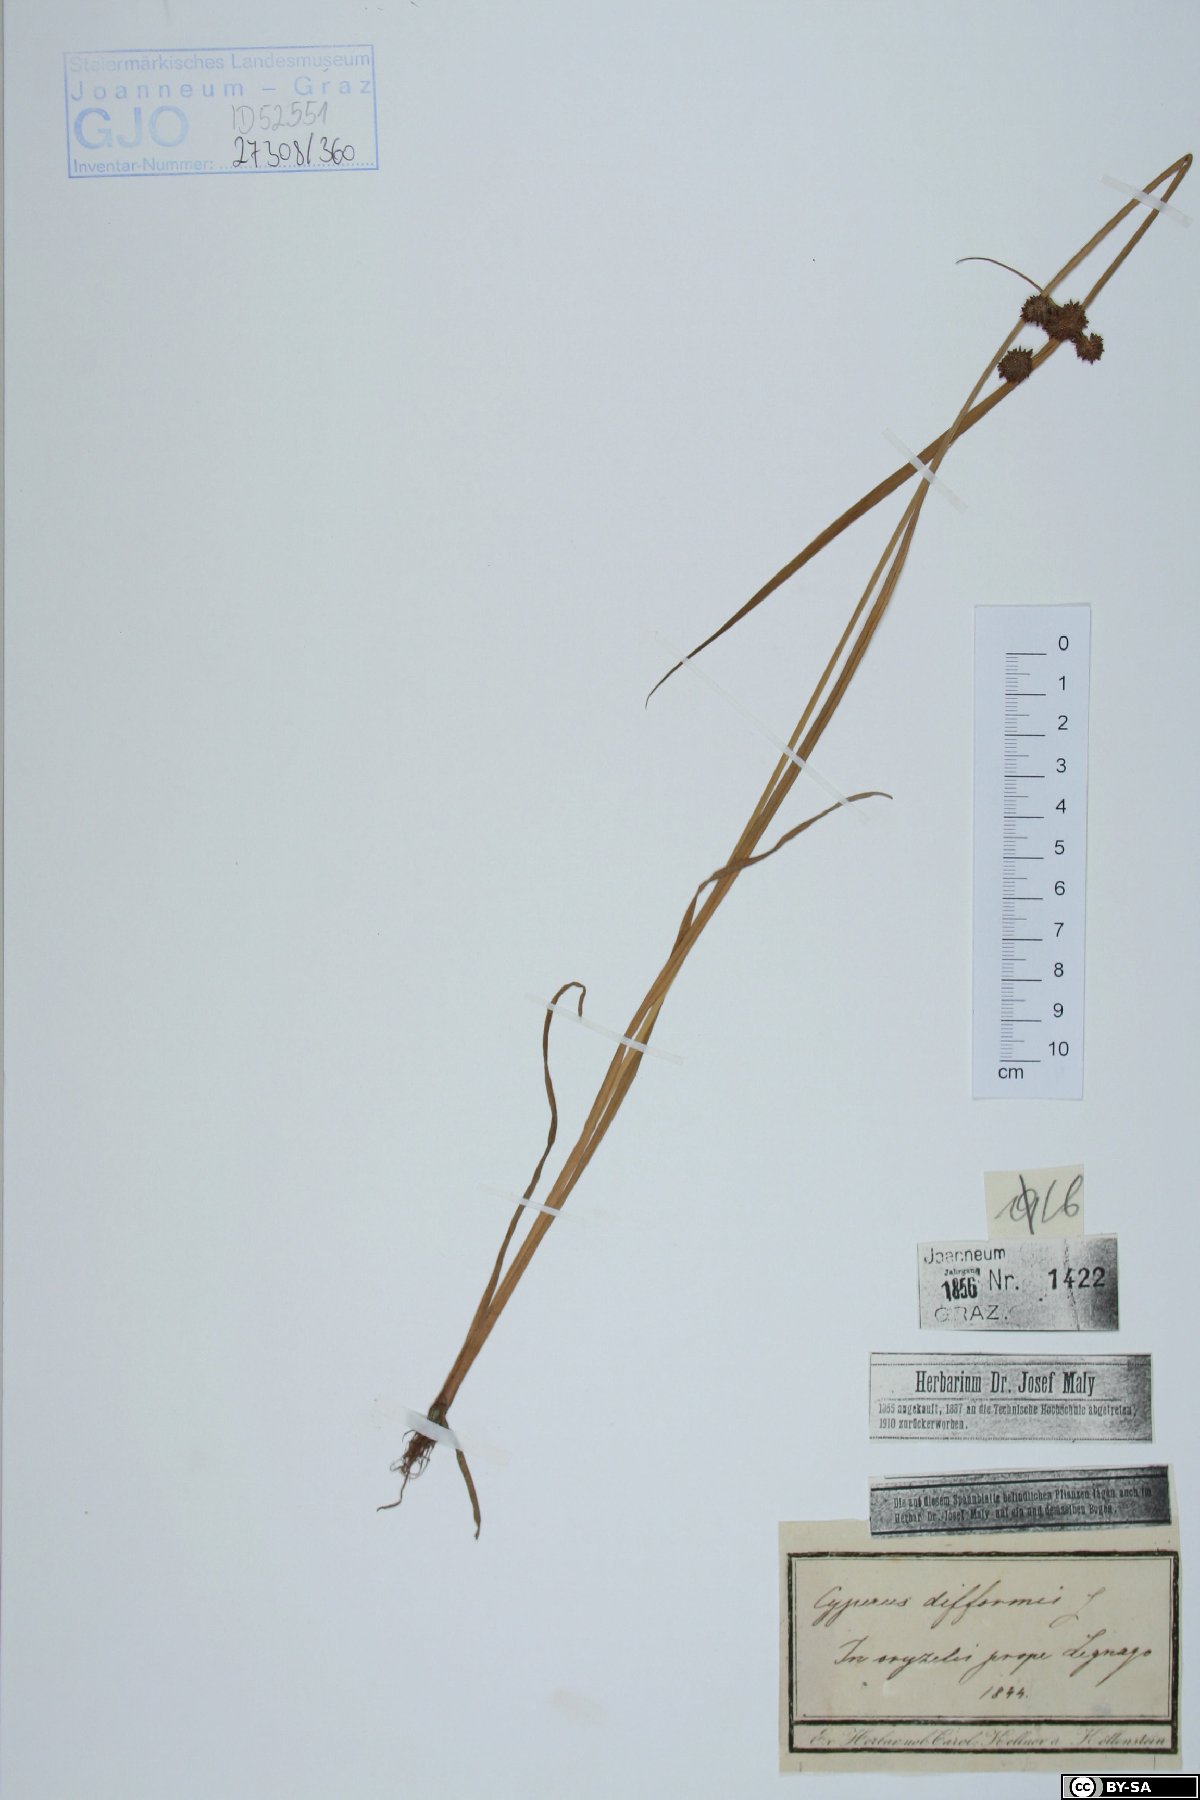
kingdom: Plantae
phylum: Tracheophyta
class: Liliopsida
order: Poales
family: Cyperaceae
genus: Cyperus
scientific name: Cyperus difformis
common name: Variable flatsedge
